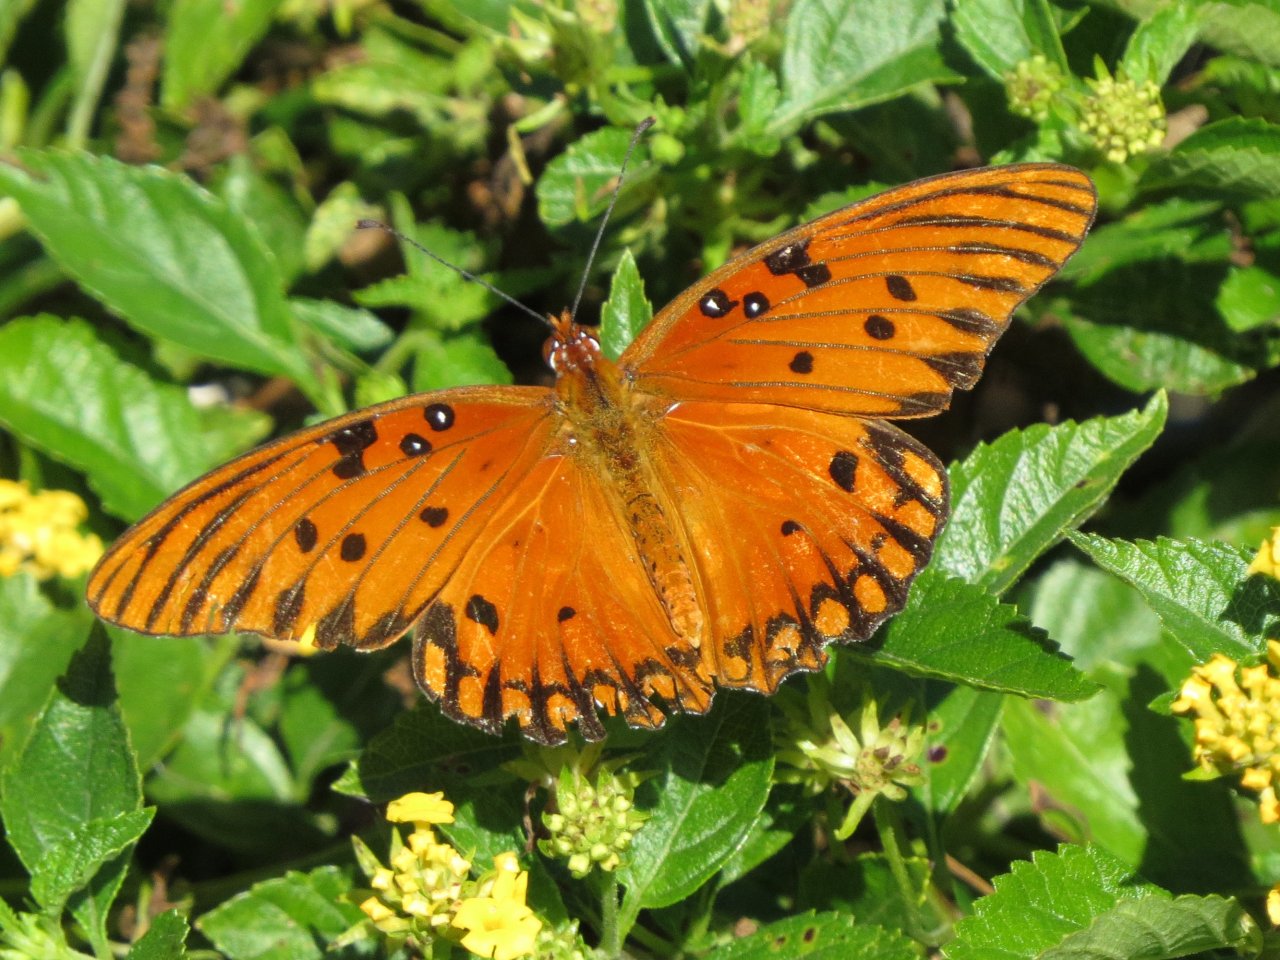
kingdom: Animalia
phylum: Arthropoda
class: Insecta
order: Lepidoptera
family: Nymphalidae
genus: Dione
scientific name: Dione vanillae
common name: Gulf Fritillary
